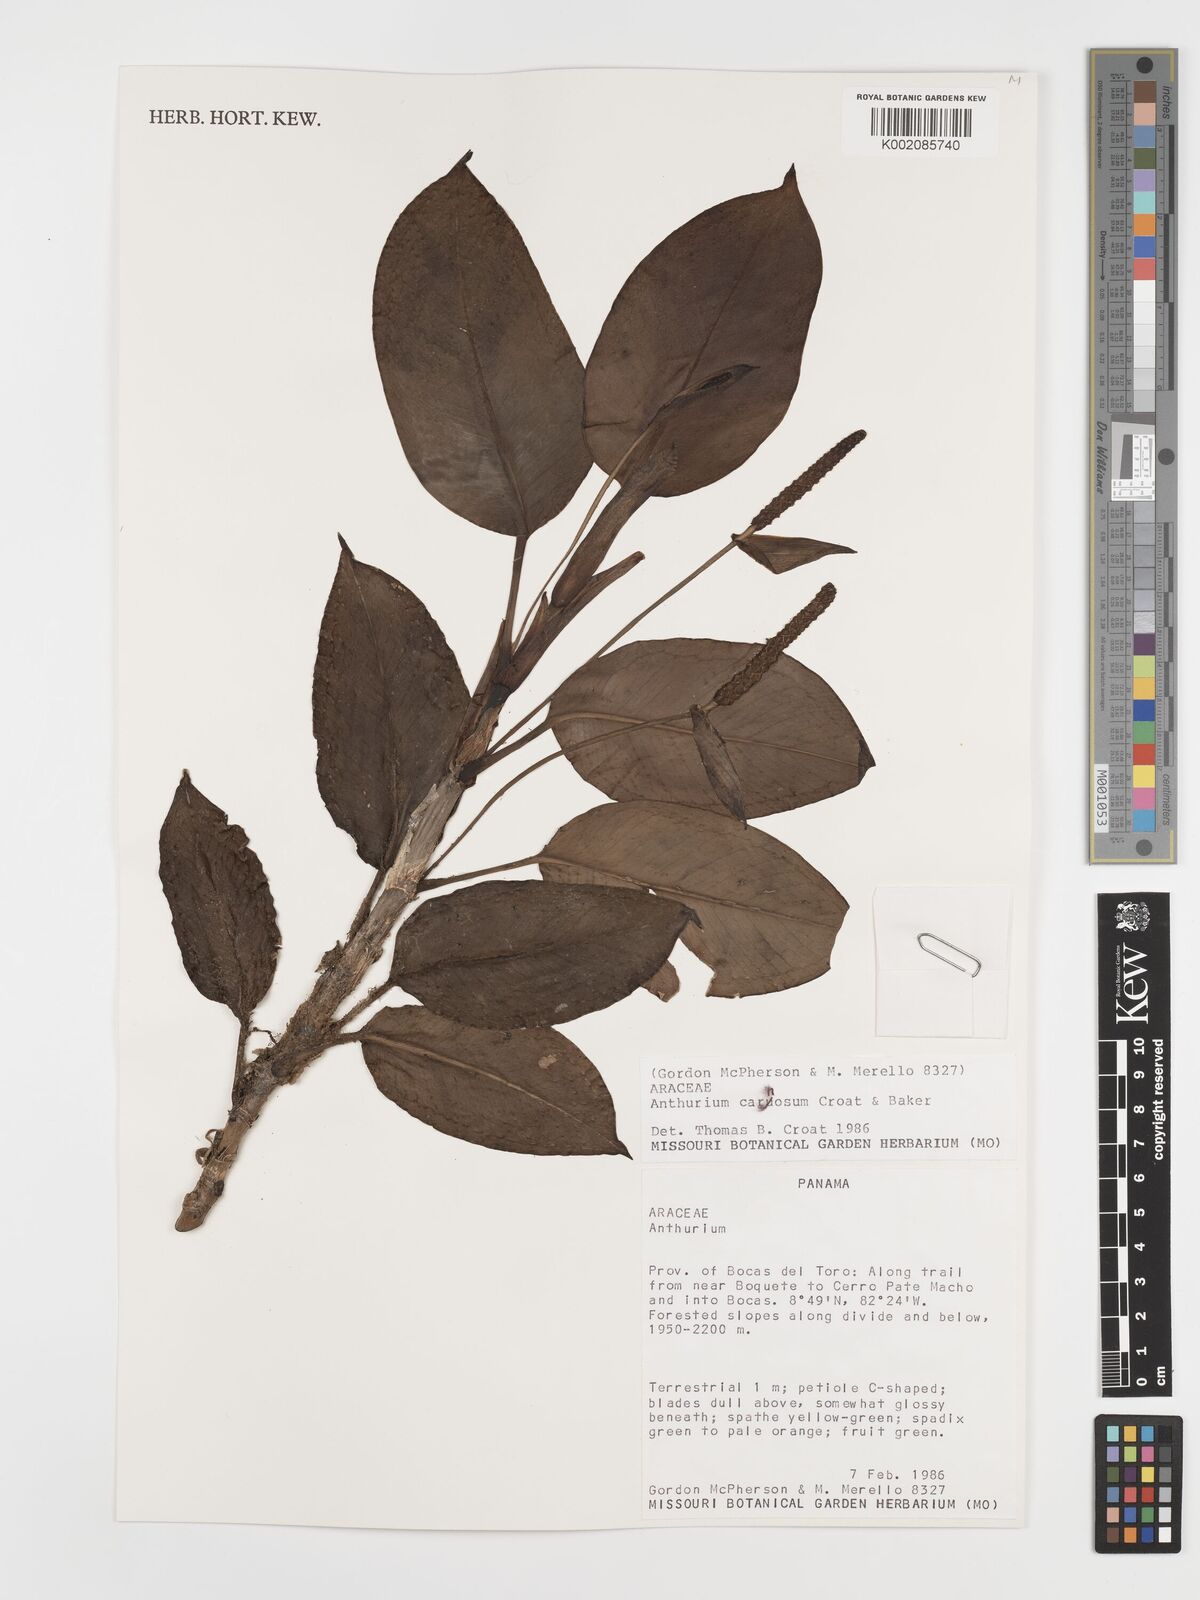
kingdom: Plantae
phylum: Tracheophyta
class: Liliopsida
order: Alismatales
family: Araceae
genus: Anthurium
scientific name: Anthurium carnosum
